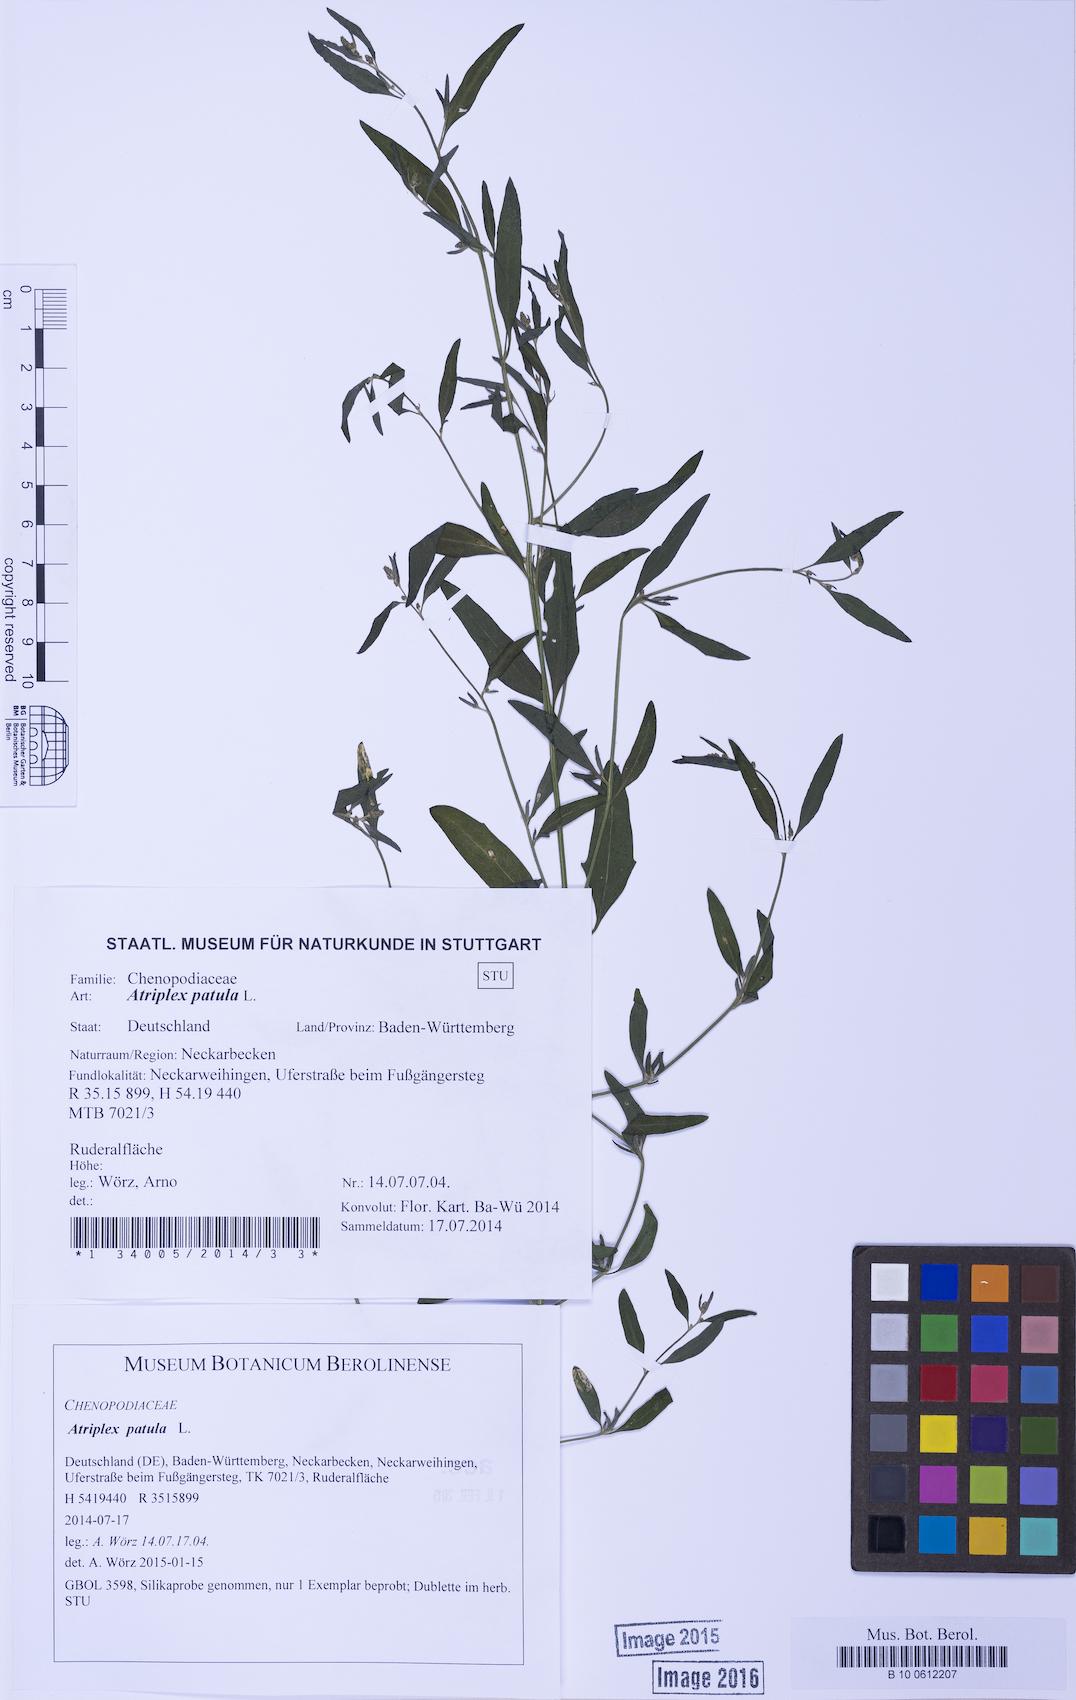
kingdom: Plantae
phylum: Tracheophyta
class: Magnoliopsida
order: Caryophyllales
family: Amaranthaceae
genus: Atriplex
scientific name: Atriplex patula
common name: Common orache
